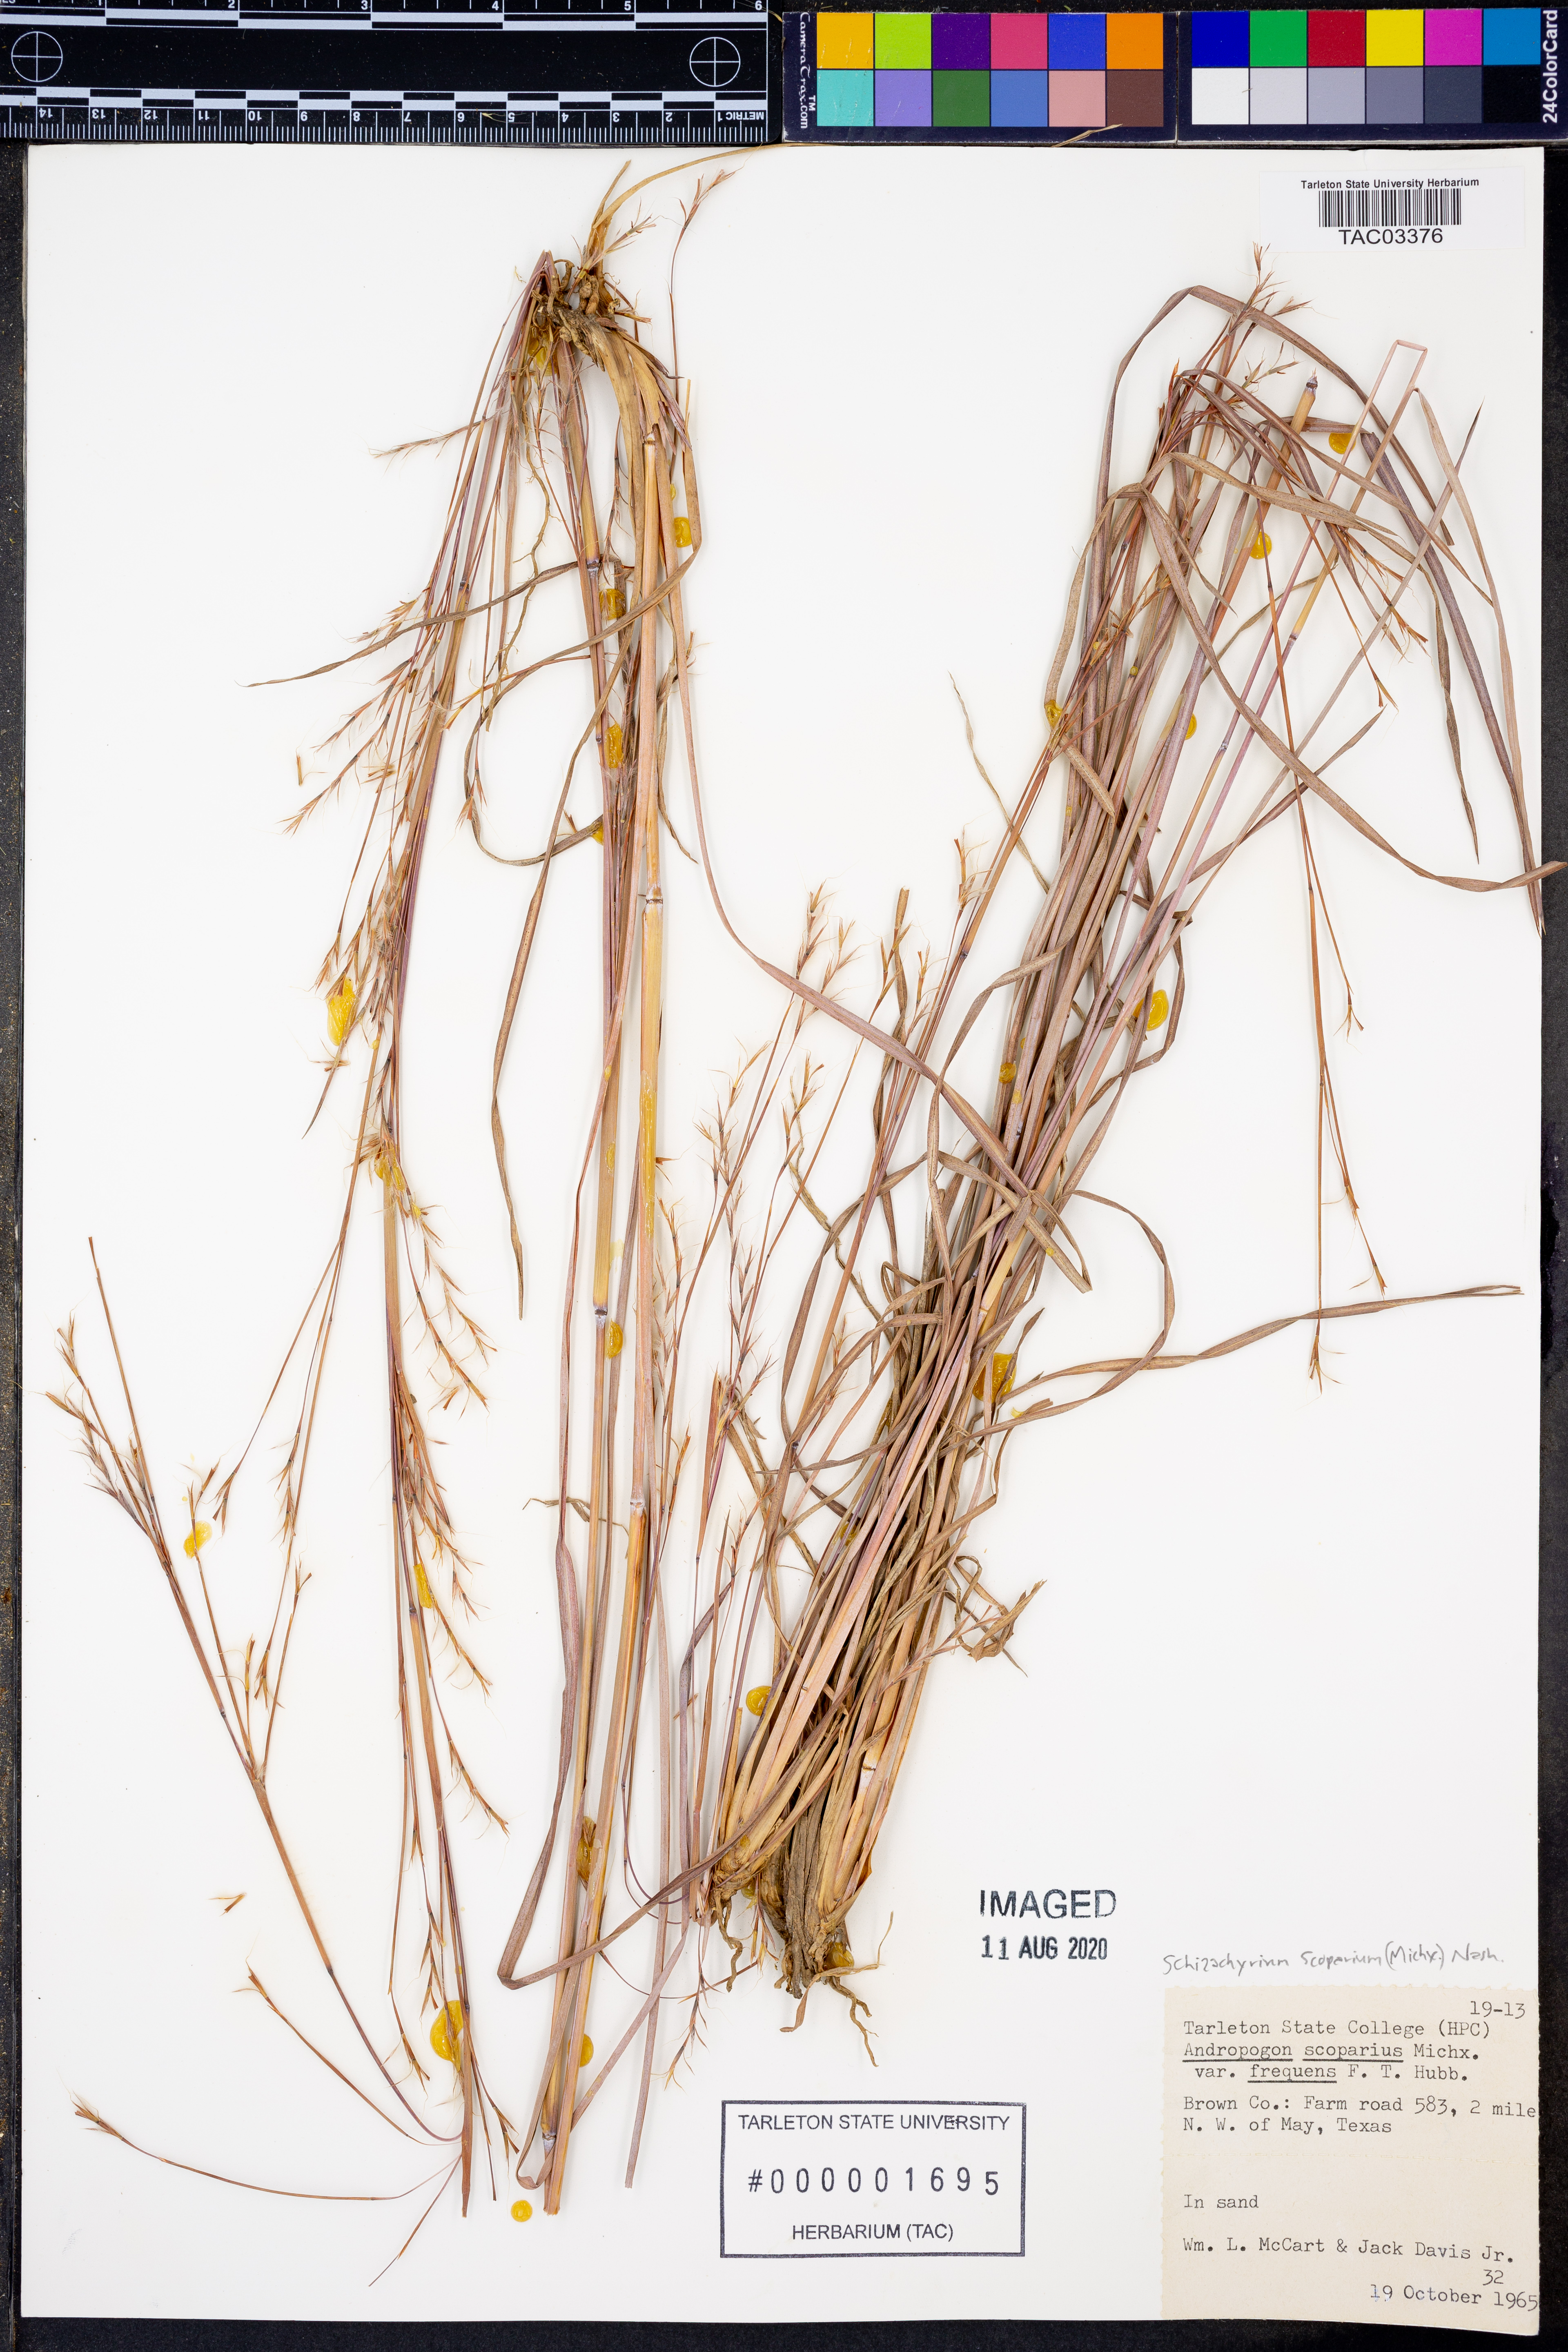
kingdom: Plantae
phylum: Tracheophyta
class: Liliopsida
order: Poales
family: Poaceae
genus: Schizachyrium
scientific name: Schizachyrium scoparium
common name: Little bluestem
